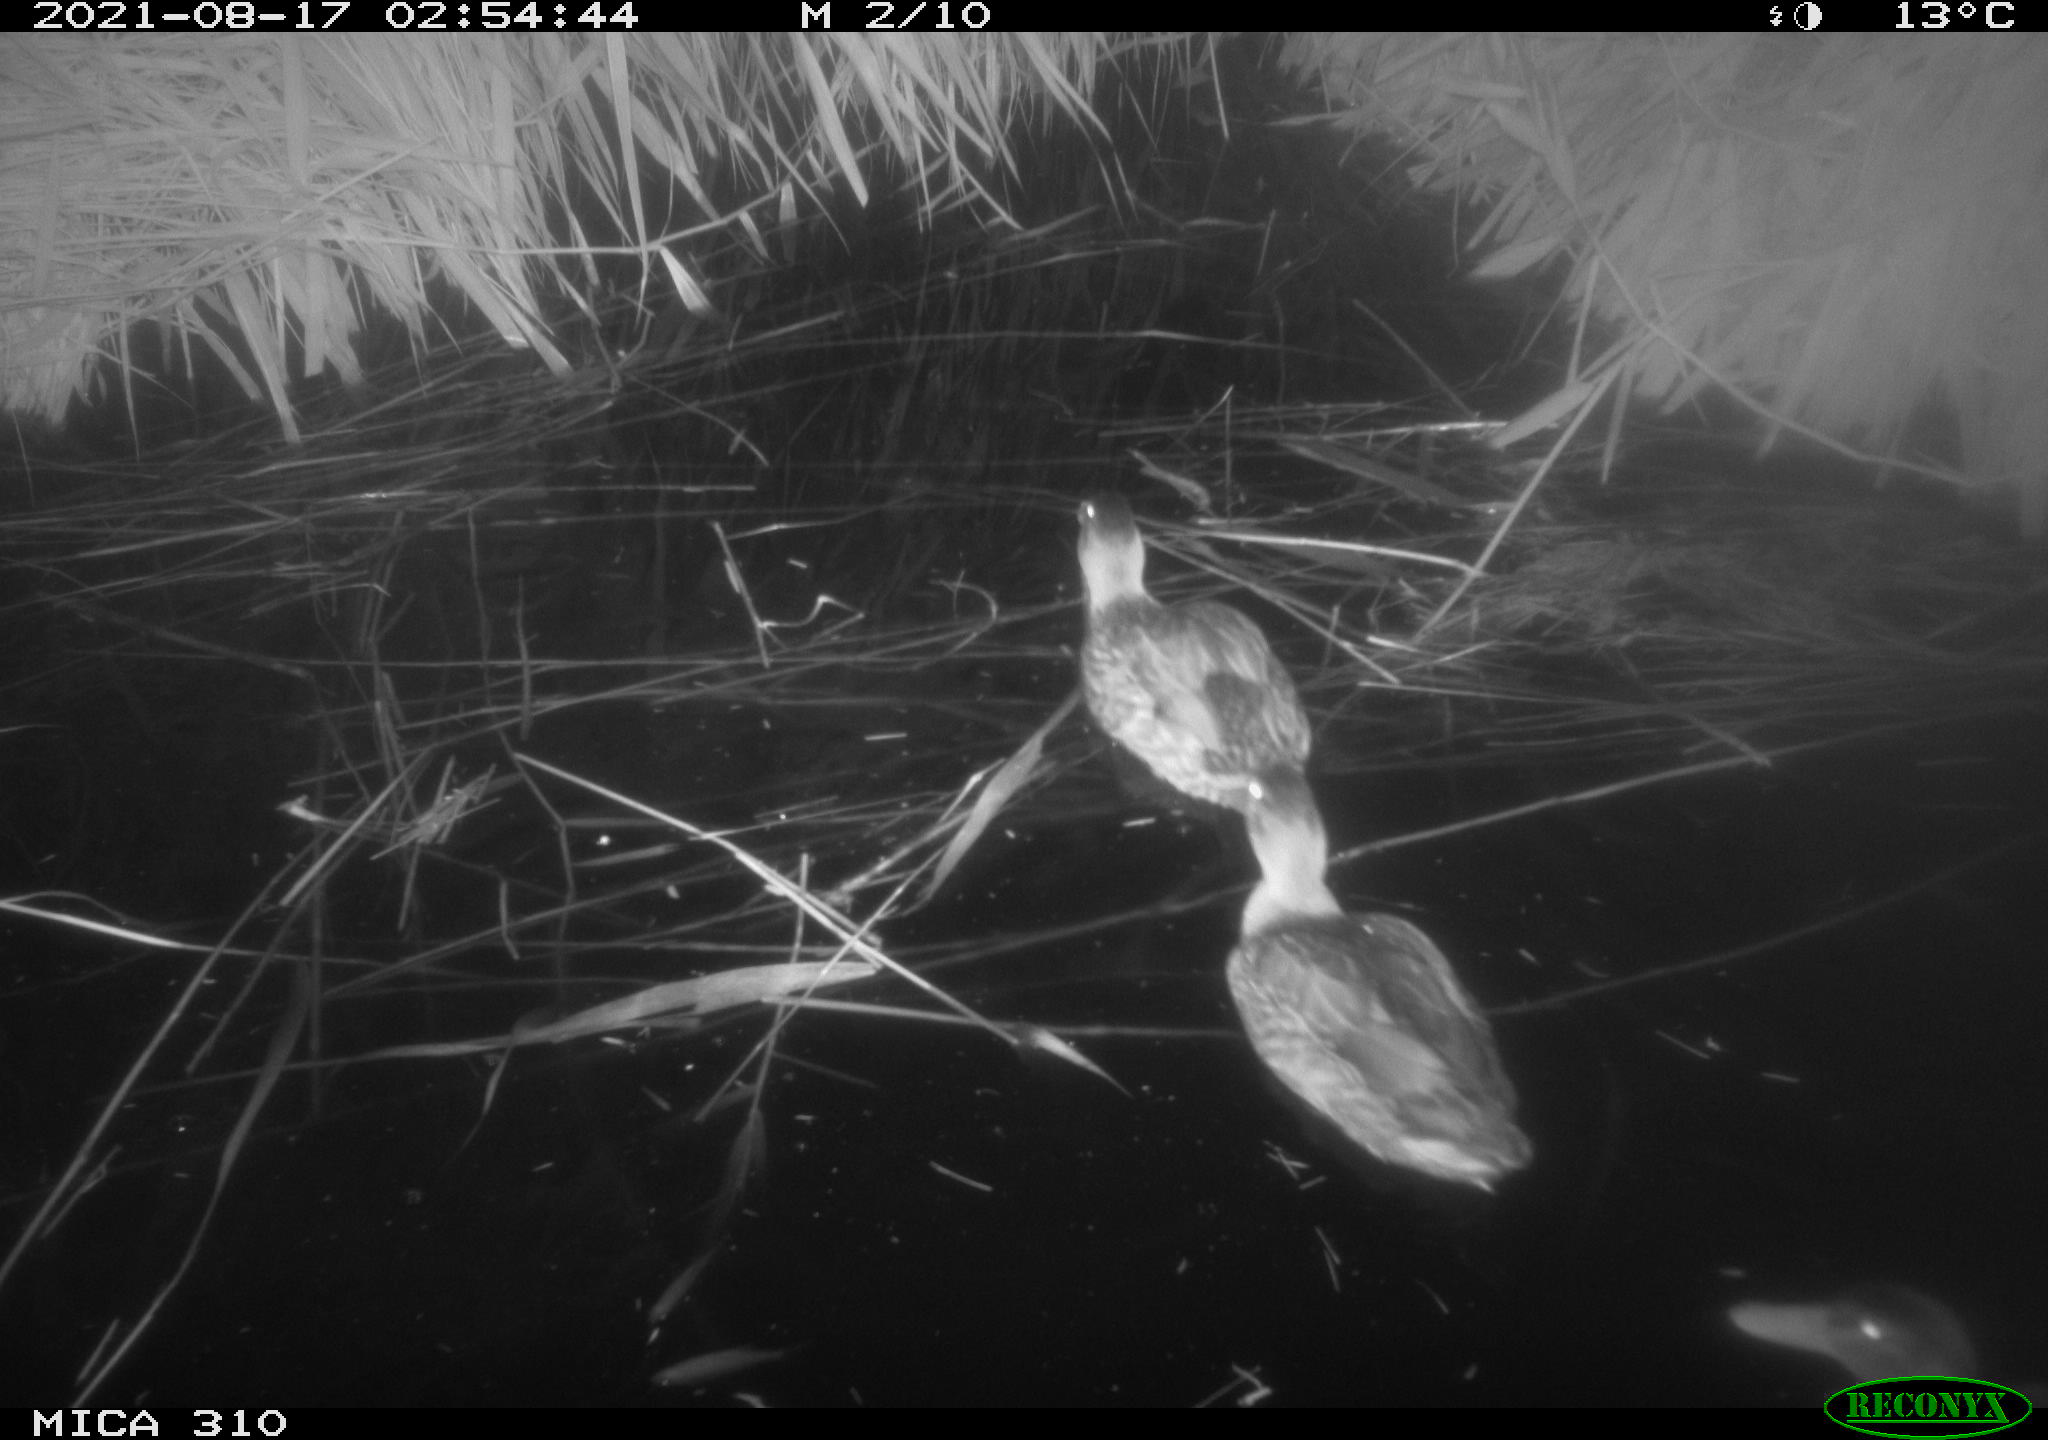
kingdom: Animalia
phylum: Chordata
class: Aves
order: Anseriformes
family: Anatidae
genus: Mareca
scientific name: Mareca strepera
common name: Gadwall
